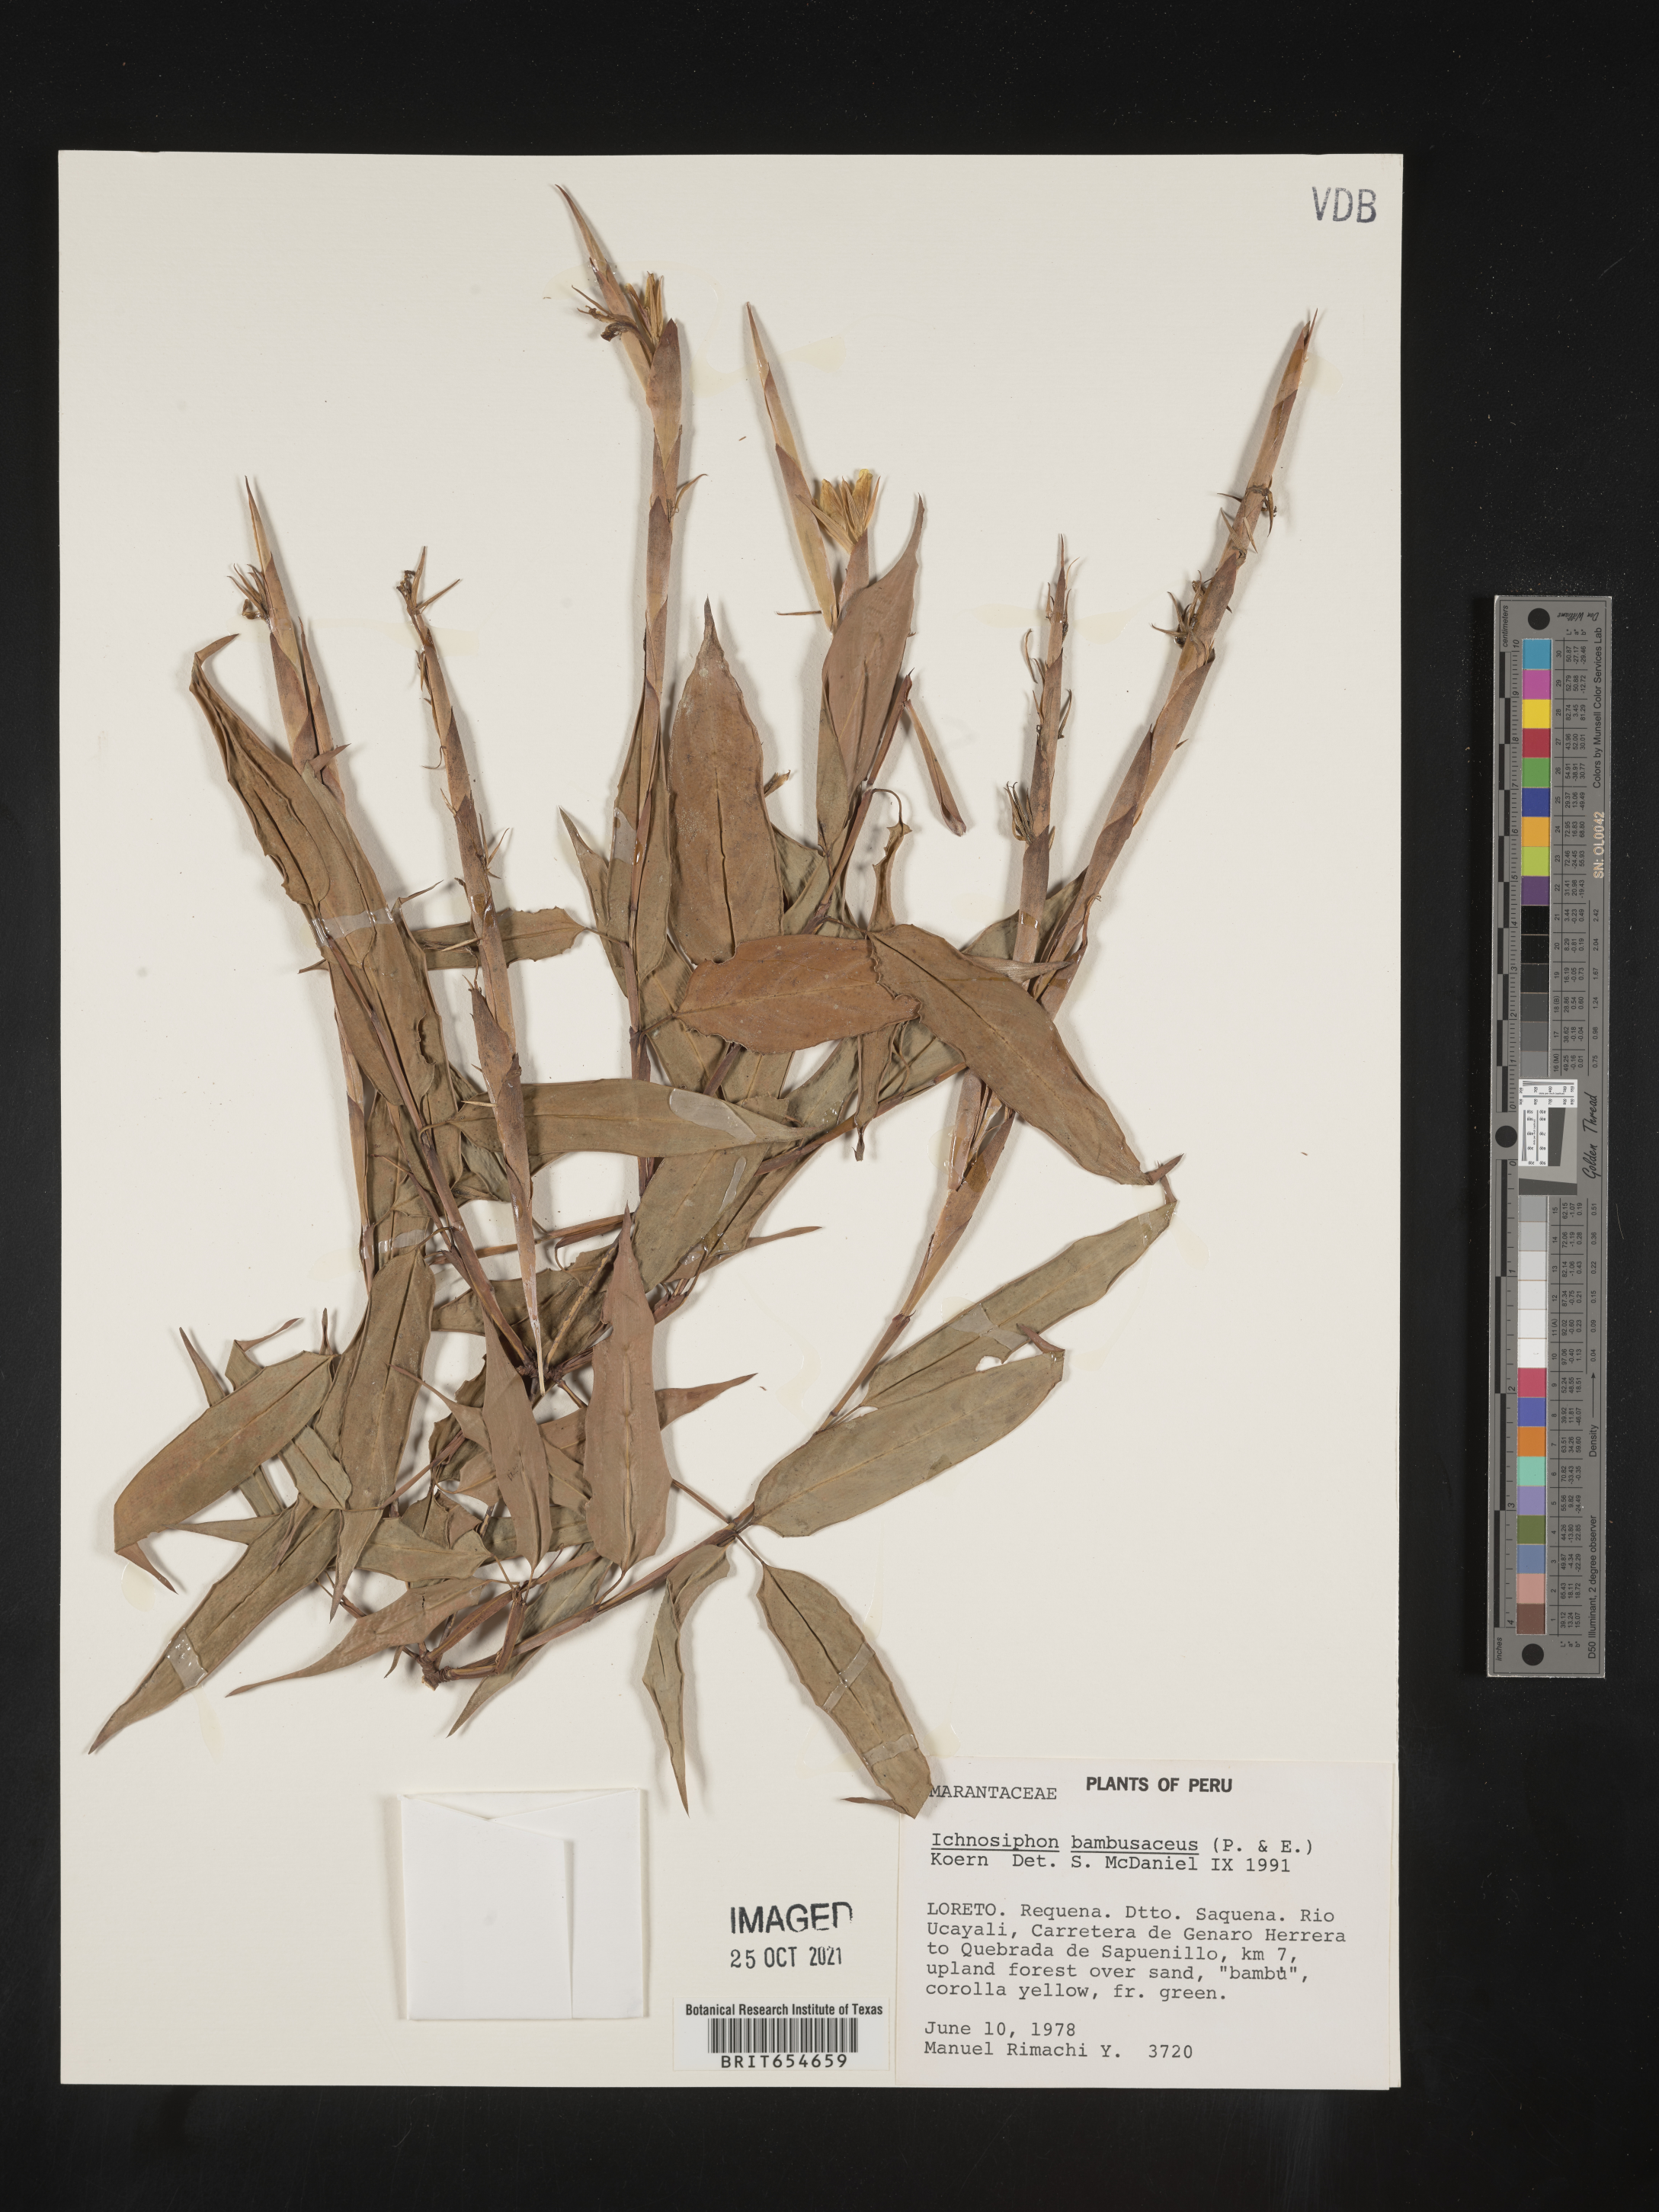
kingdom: Plantae
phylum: Tracheophyta
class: Liliopsida
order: Zingiberales
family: Marantaceae
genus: Ischnosiphon
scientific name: Ischnosiphon
